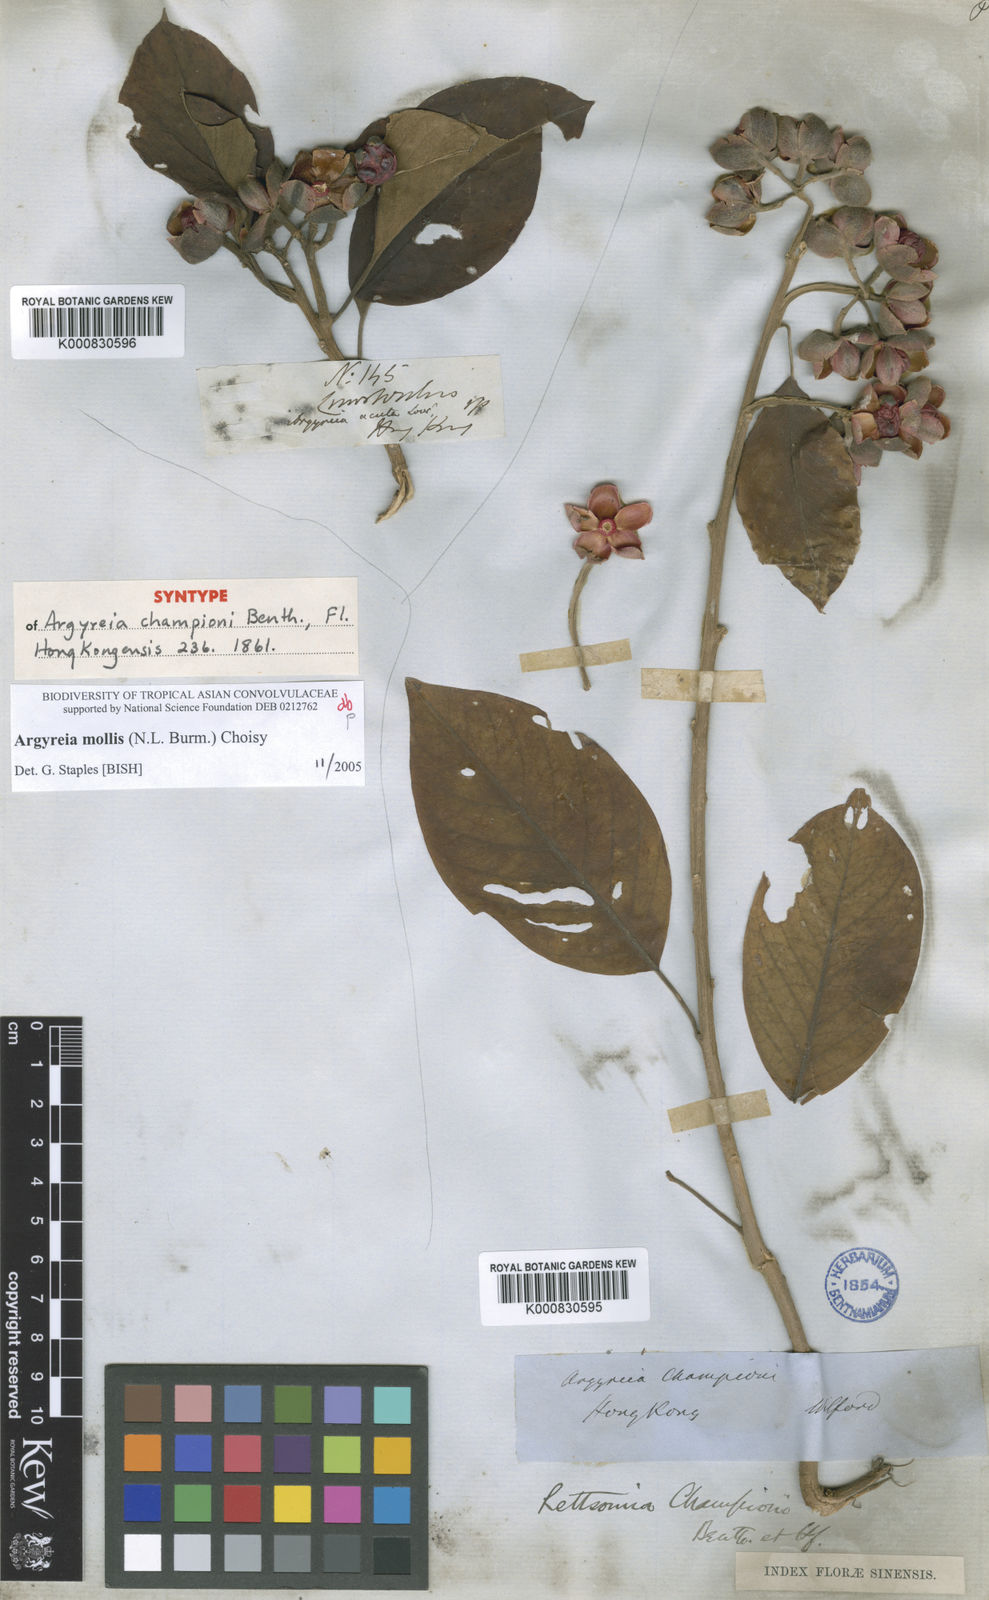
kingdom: Plantae
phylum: Tracheophyta
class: Magnoliopsida
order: Solanales
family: Convolvulaceae
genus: Argyreia
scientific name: Argyreia mollis
